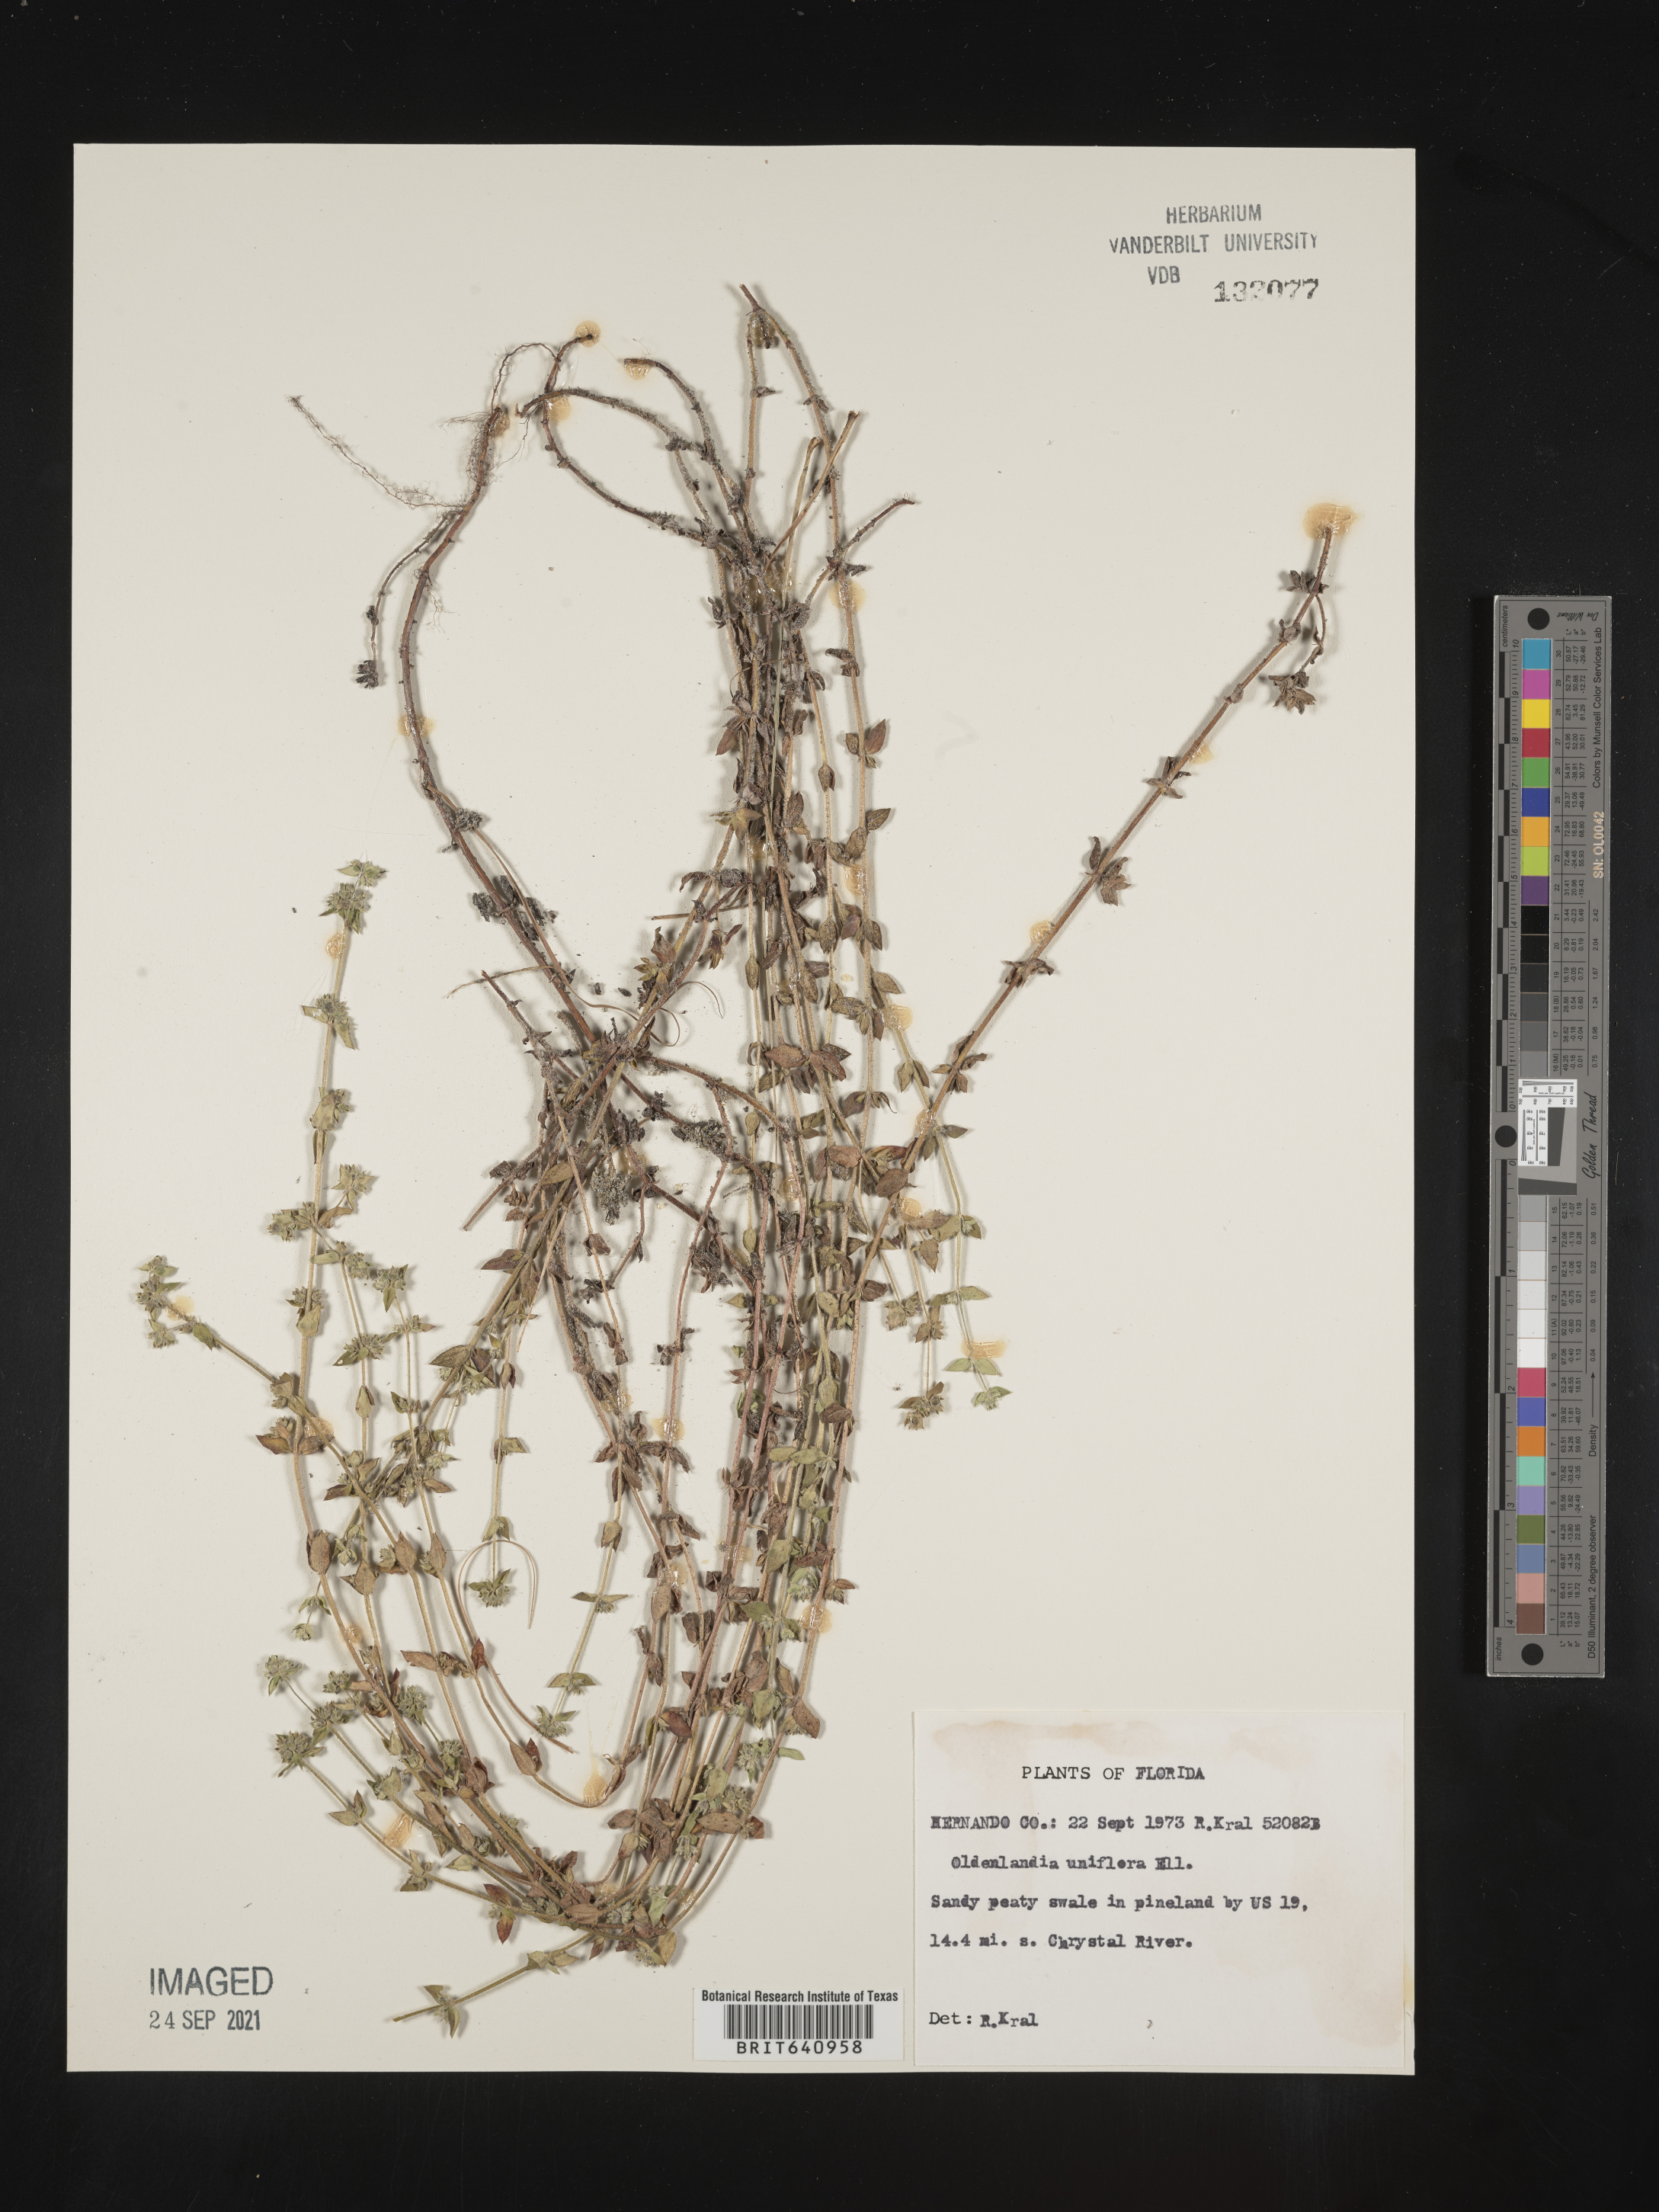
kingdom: Plantae
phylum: Tracheophyta
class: Magnoliopsida
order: Gentianales
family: Rubiaceae
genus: Edrastima
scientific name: Edrastima uniflora
